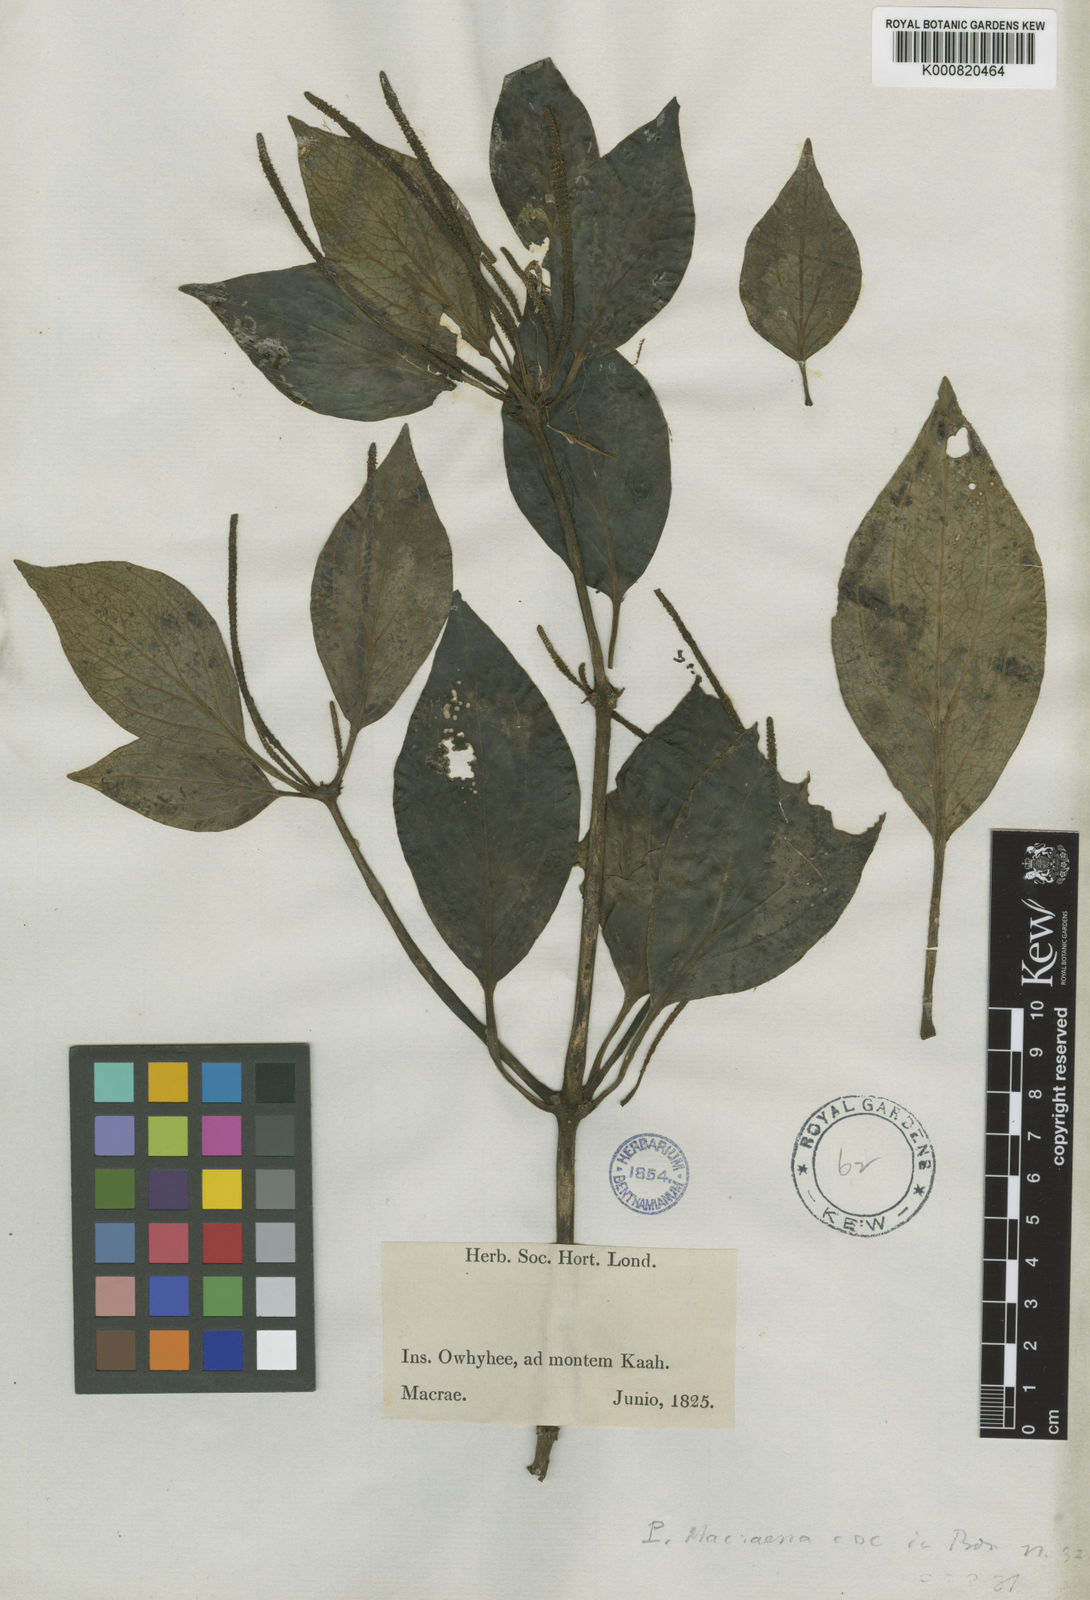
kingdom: Plantae
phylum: Tracheophyta
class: Magnoliopsida
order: Piperales
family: Piperaceae
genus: Peperomia
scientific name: Peperomia macraeana
